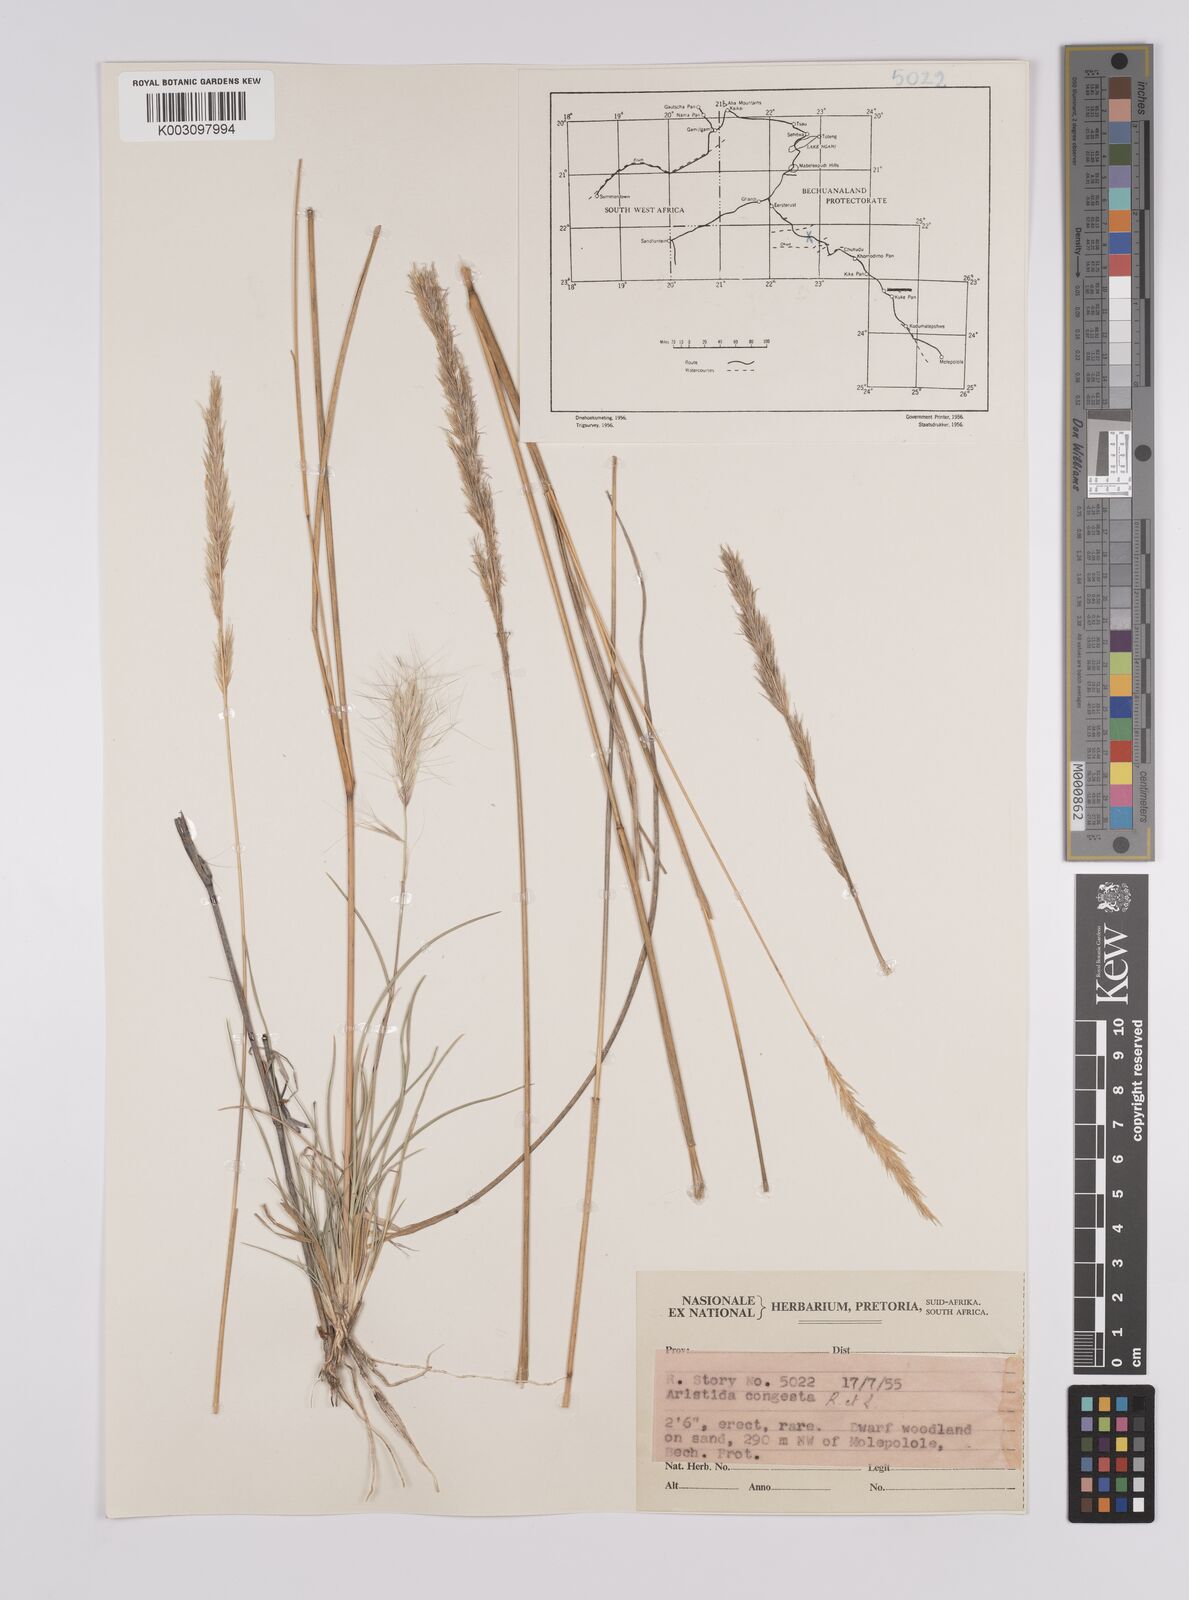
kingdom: Plantae
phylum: Tracheophyta
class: Liliopsida
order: Poales
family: Poaceae
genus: Aristida
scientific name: Aristida congesta
